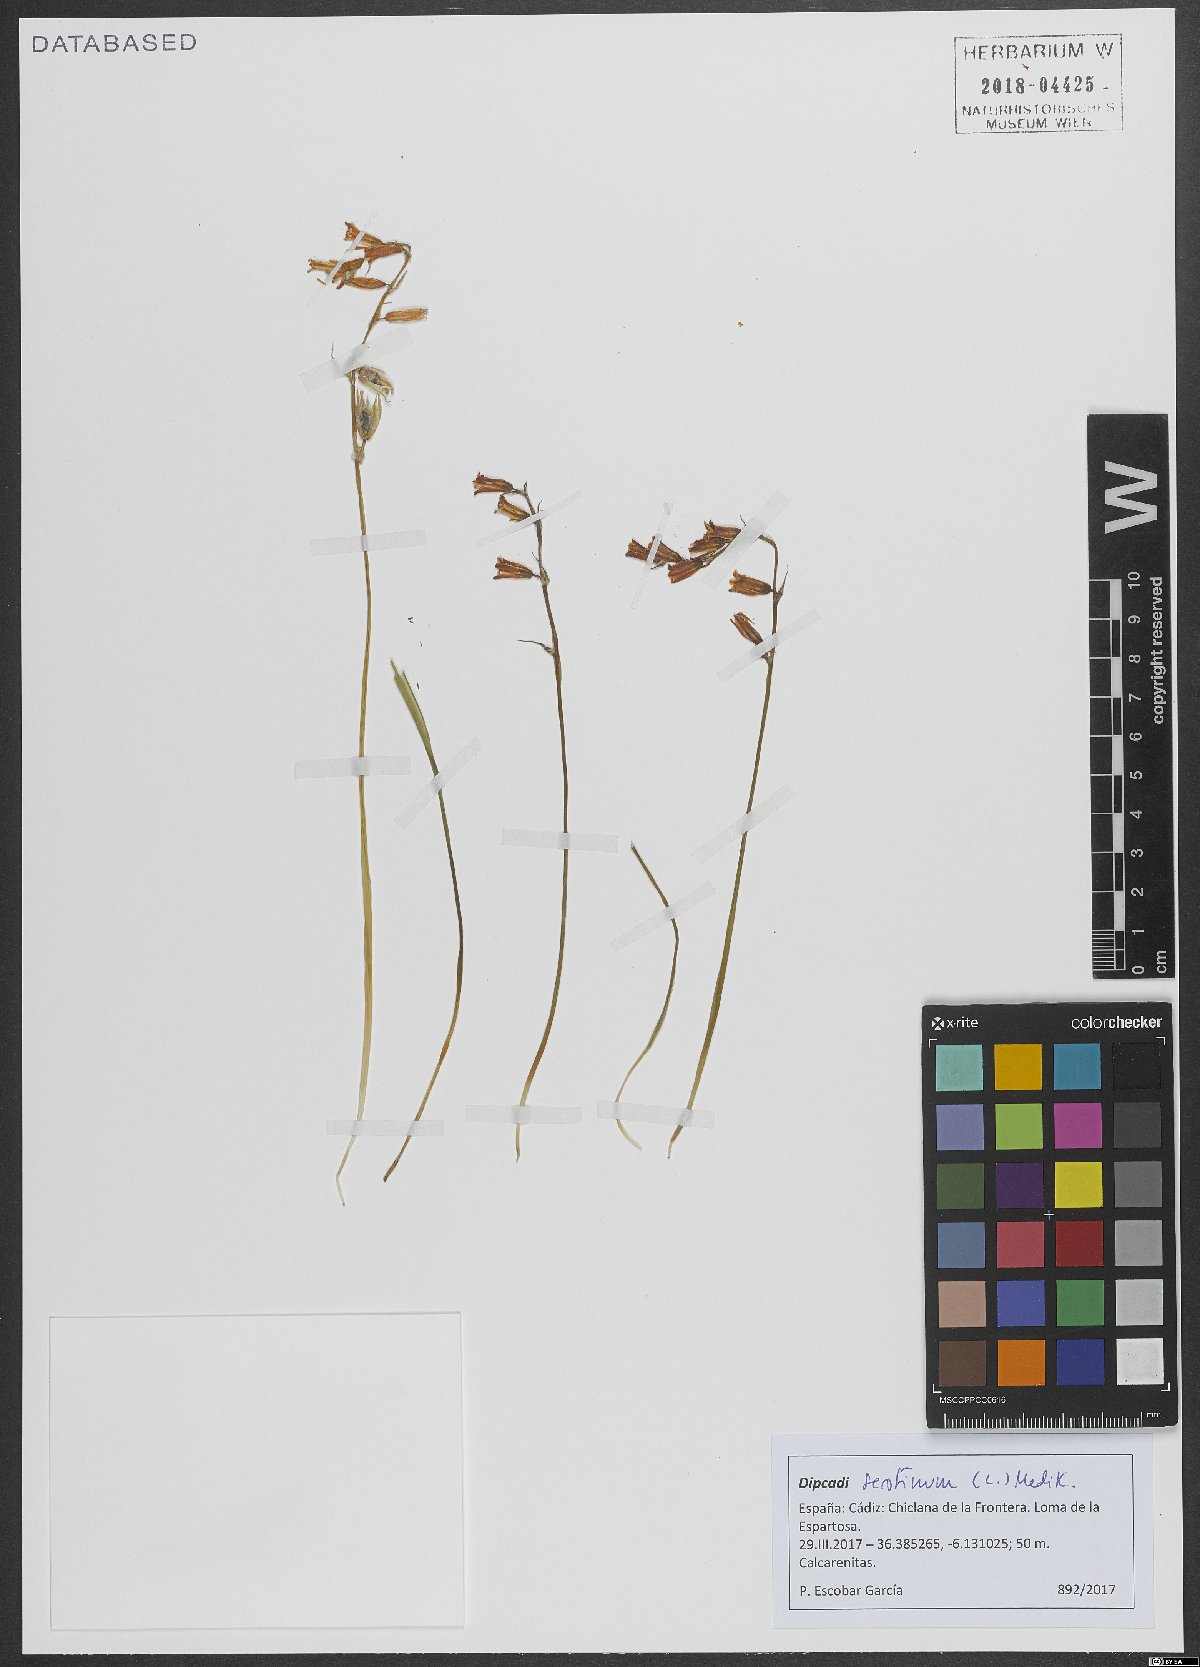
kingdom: Plantae
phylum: Tracheophyta
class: Liliopsida
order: Asparagales
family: Asparagaceae
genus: Dipcadi
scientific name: Dipcadi serotinum
